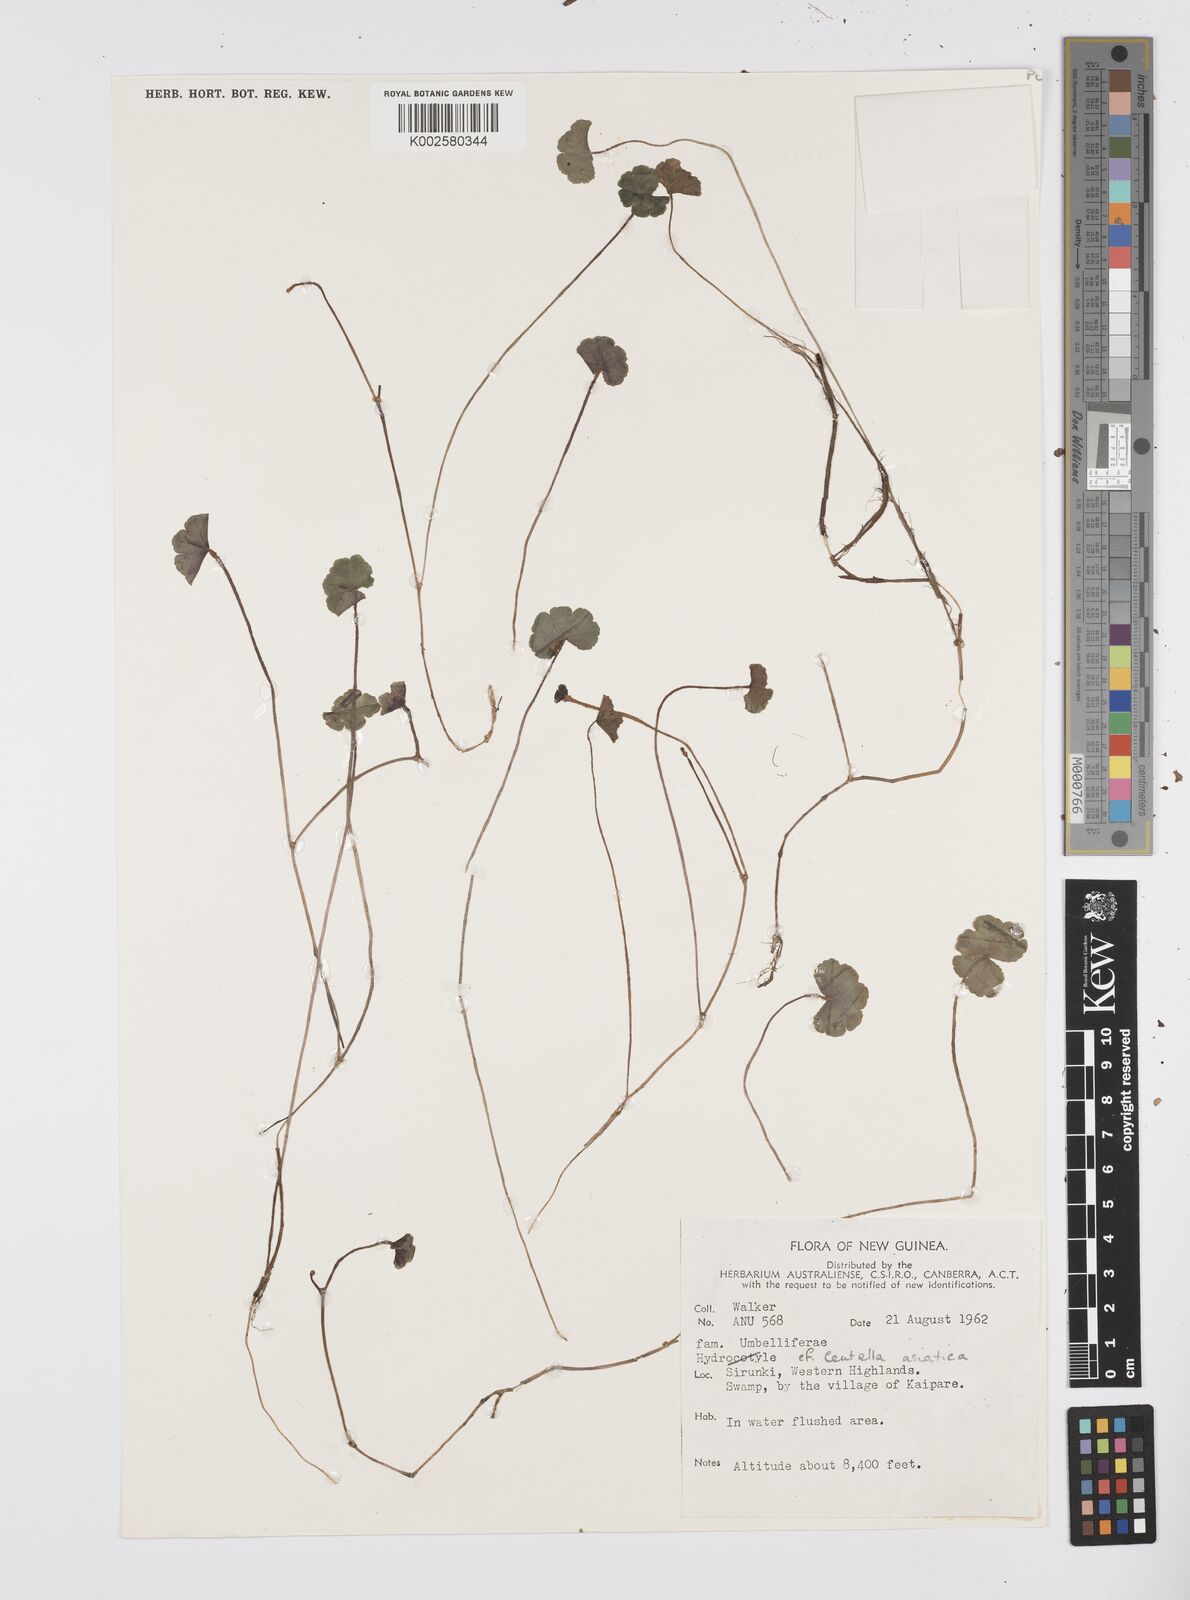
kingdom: Plantae
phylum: Tracheophyta
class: Magnoliopsida
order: Apiales
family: Apiaceae
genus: Centella
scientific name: Centella asiatica
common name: Spadeleaf
